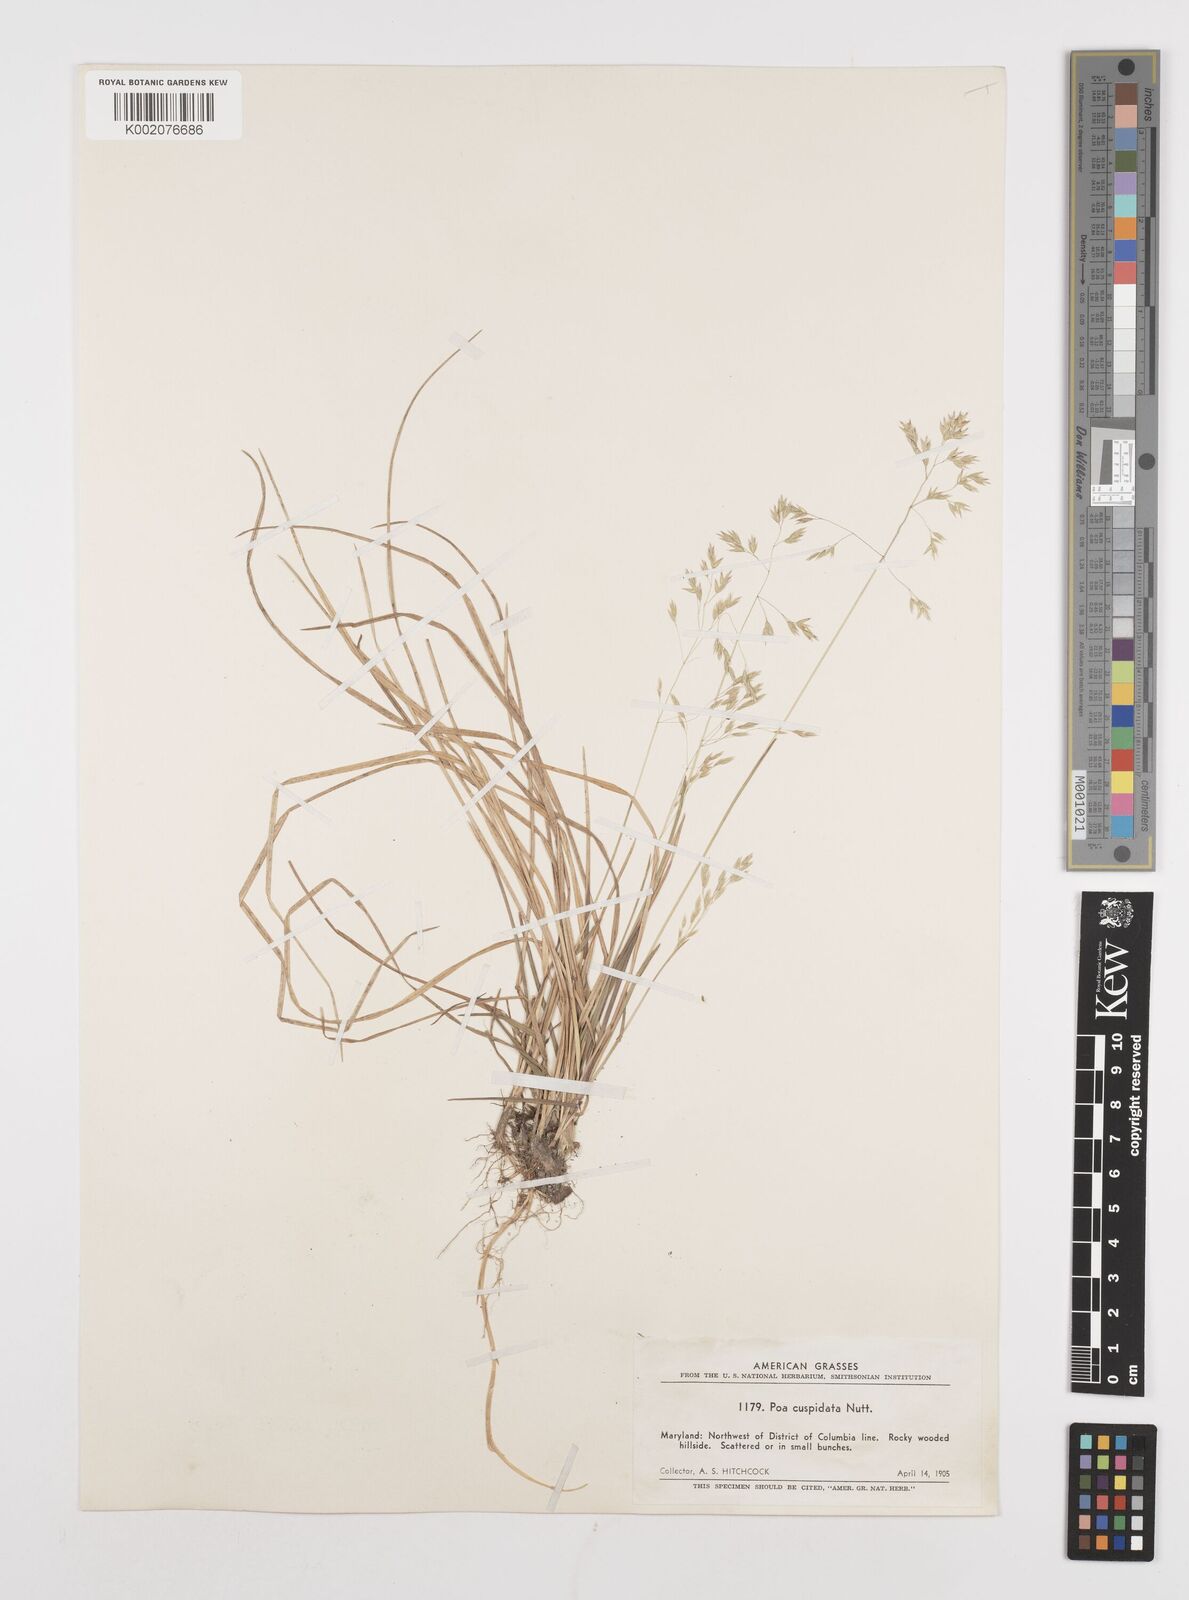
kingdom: Plantae
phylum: Tracheophyta
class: Liliopsida
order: Poales
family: Poaceae
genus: Poa
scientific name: Poa cuspidata
